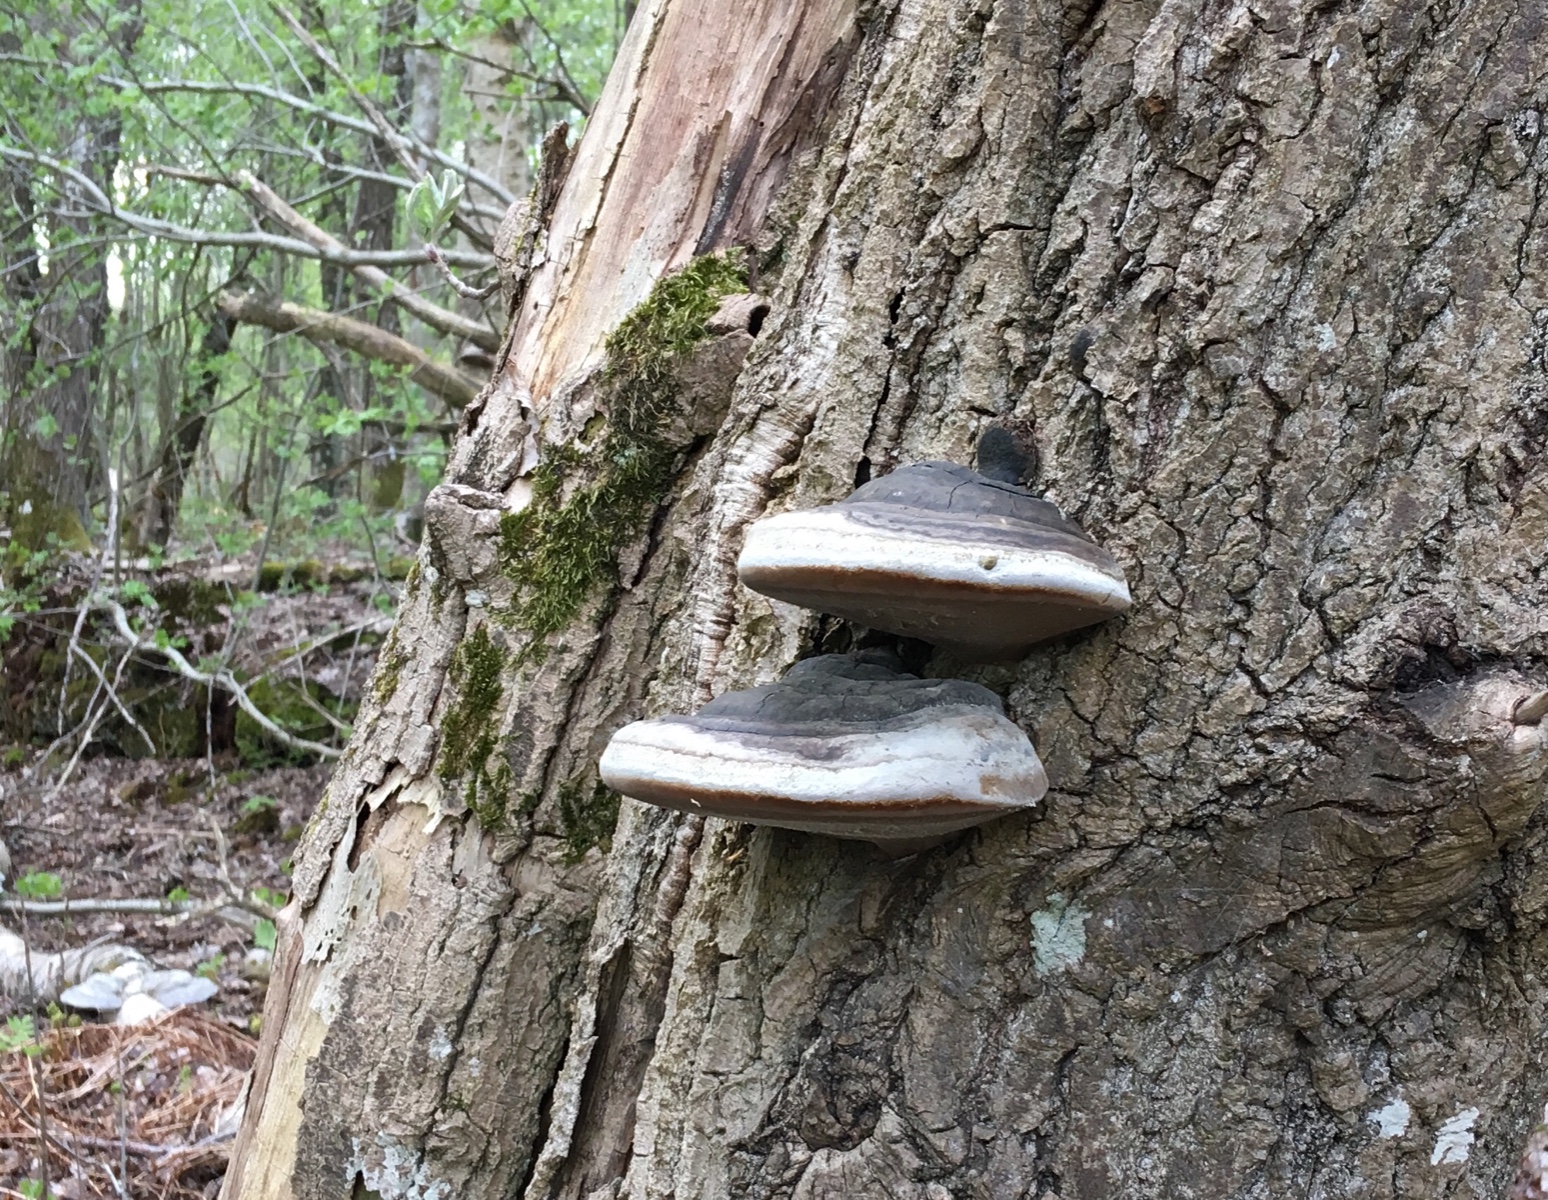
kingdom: Fungi
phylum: Basidiomycota
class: Agaricomycetes
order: Hymenochaetales
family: Hymenochaetaceae
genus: Phellinus
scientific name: Phellinus populicola
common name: poppel-ildporesvamp
